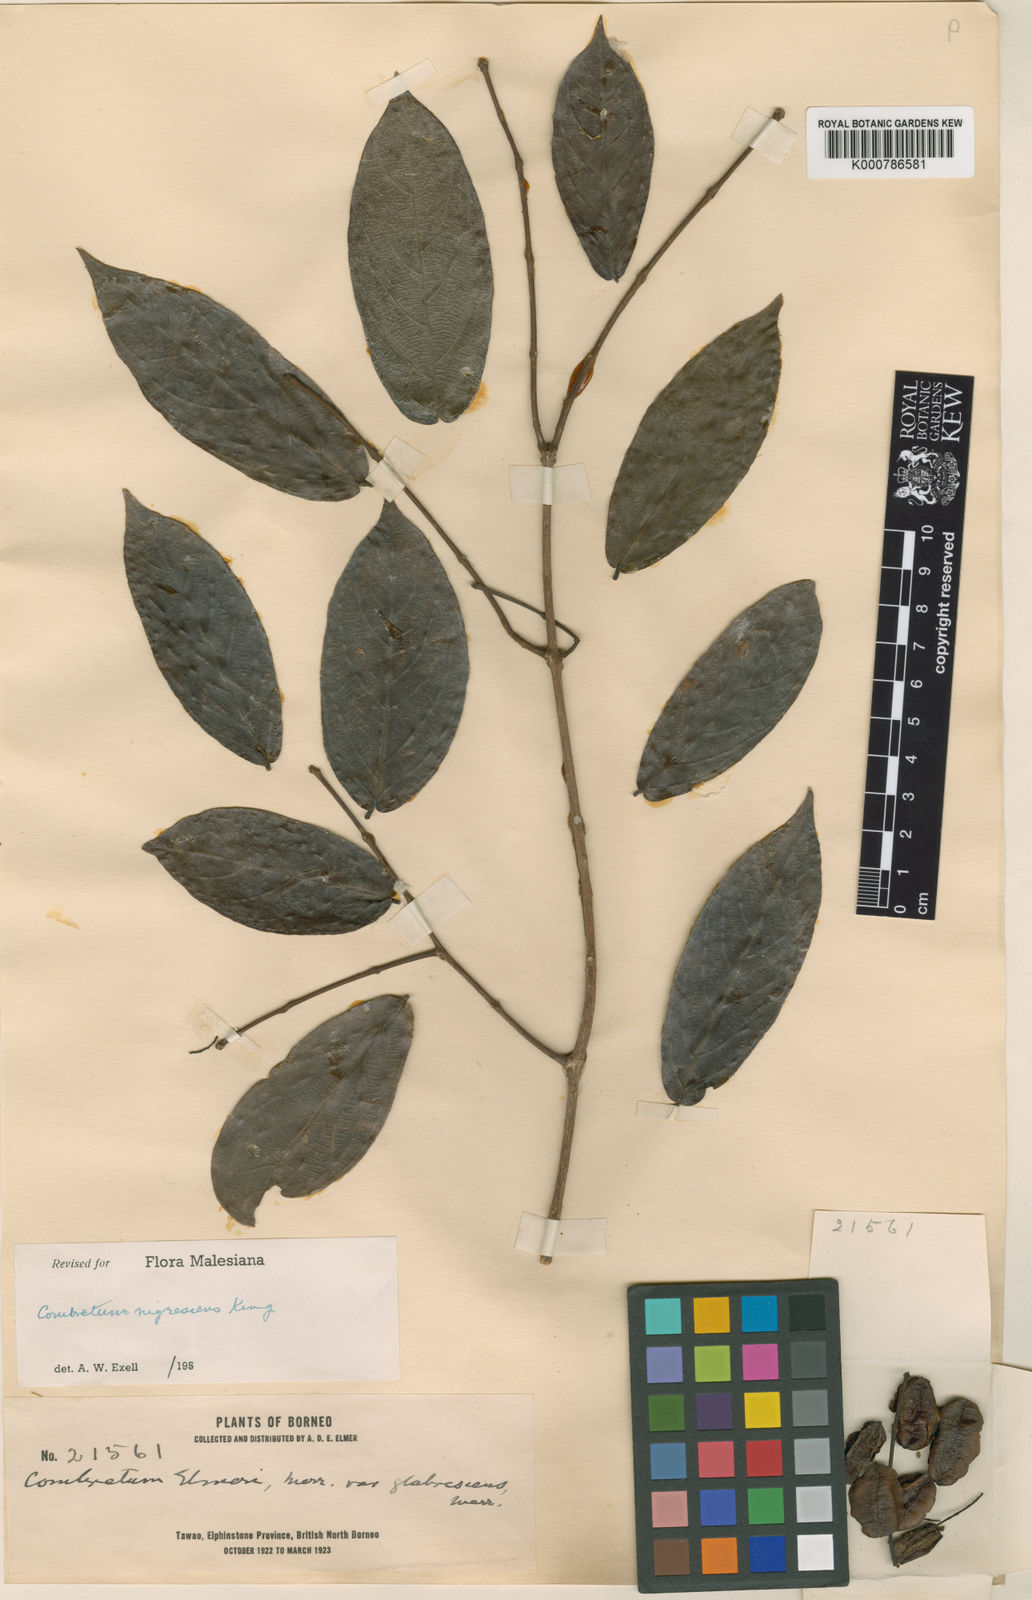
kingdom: Plantae
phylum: Tracheophyta
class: Magnoliopsida
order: Myrtales
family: Combretaceae
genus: Combretum
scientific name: Combretum nigrescens
